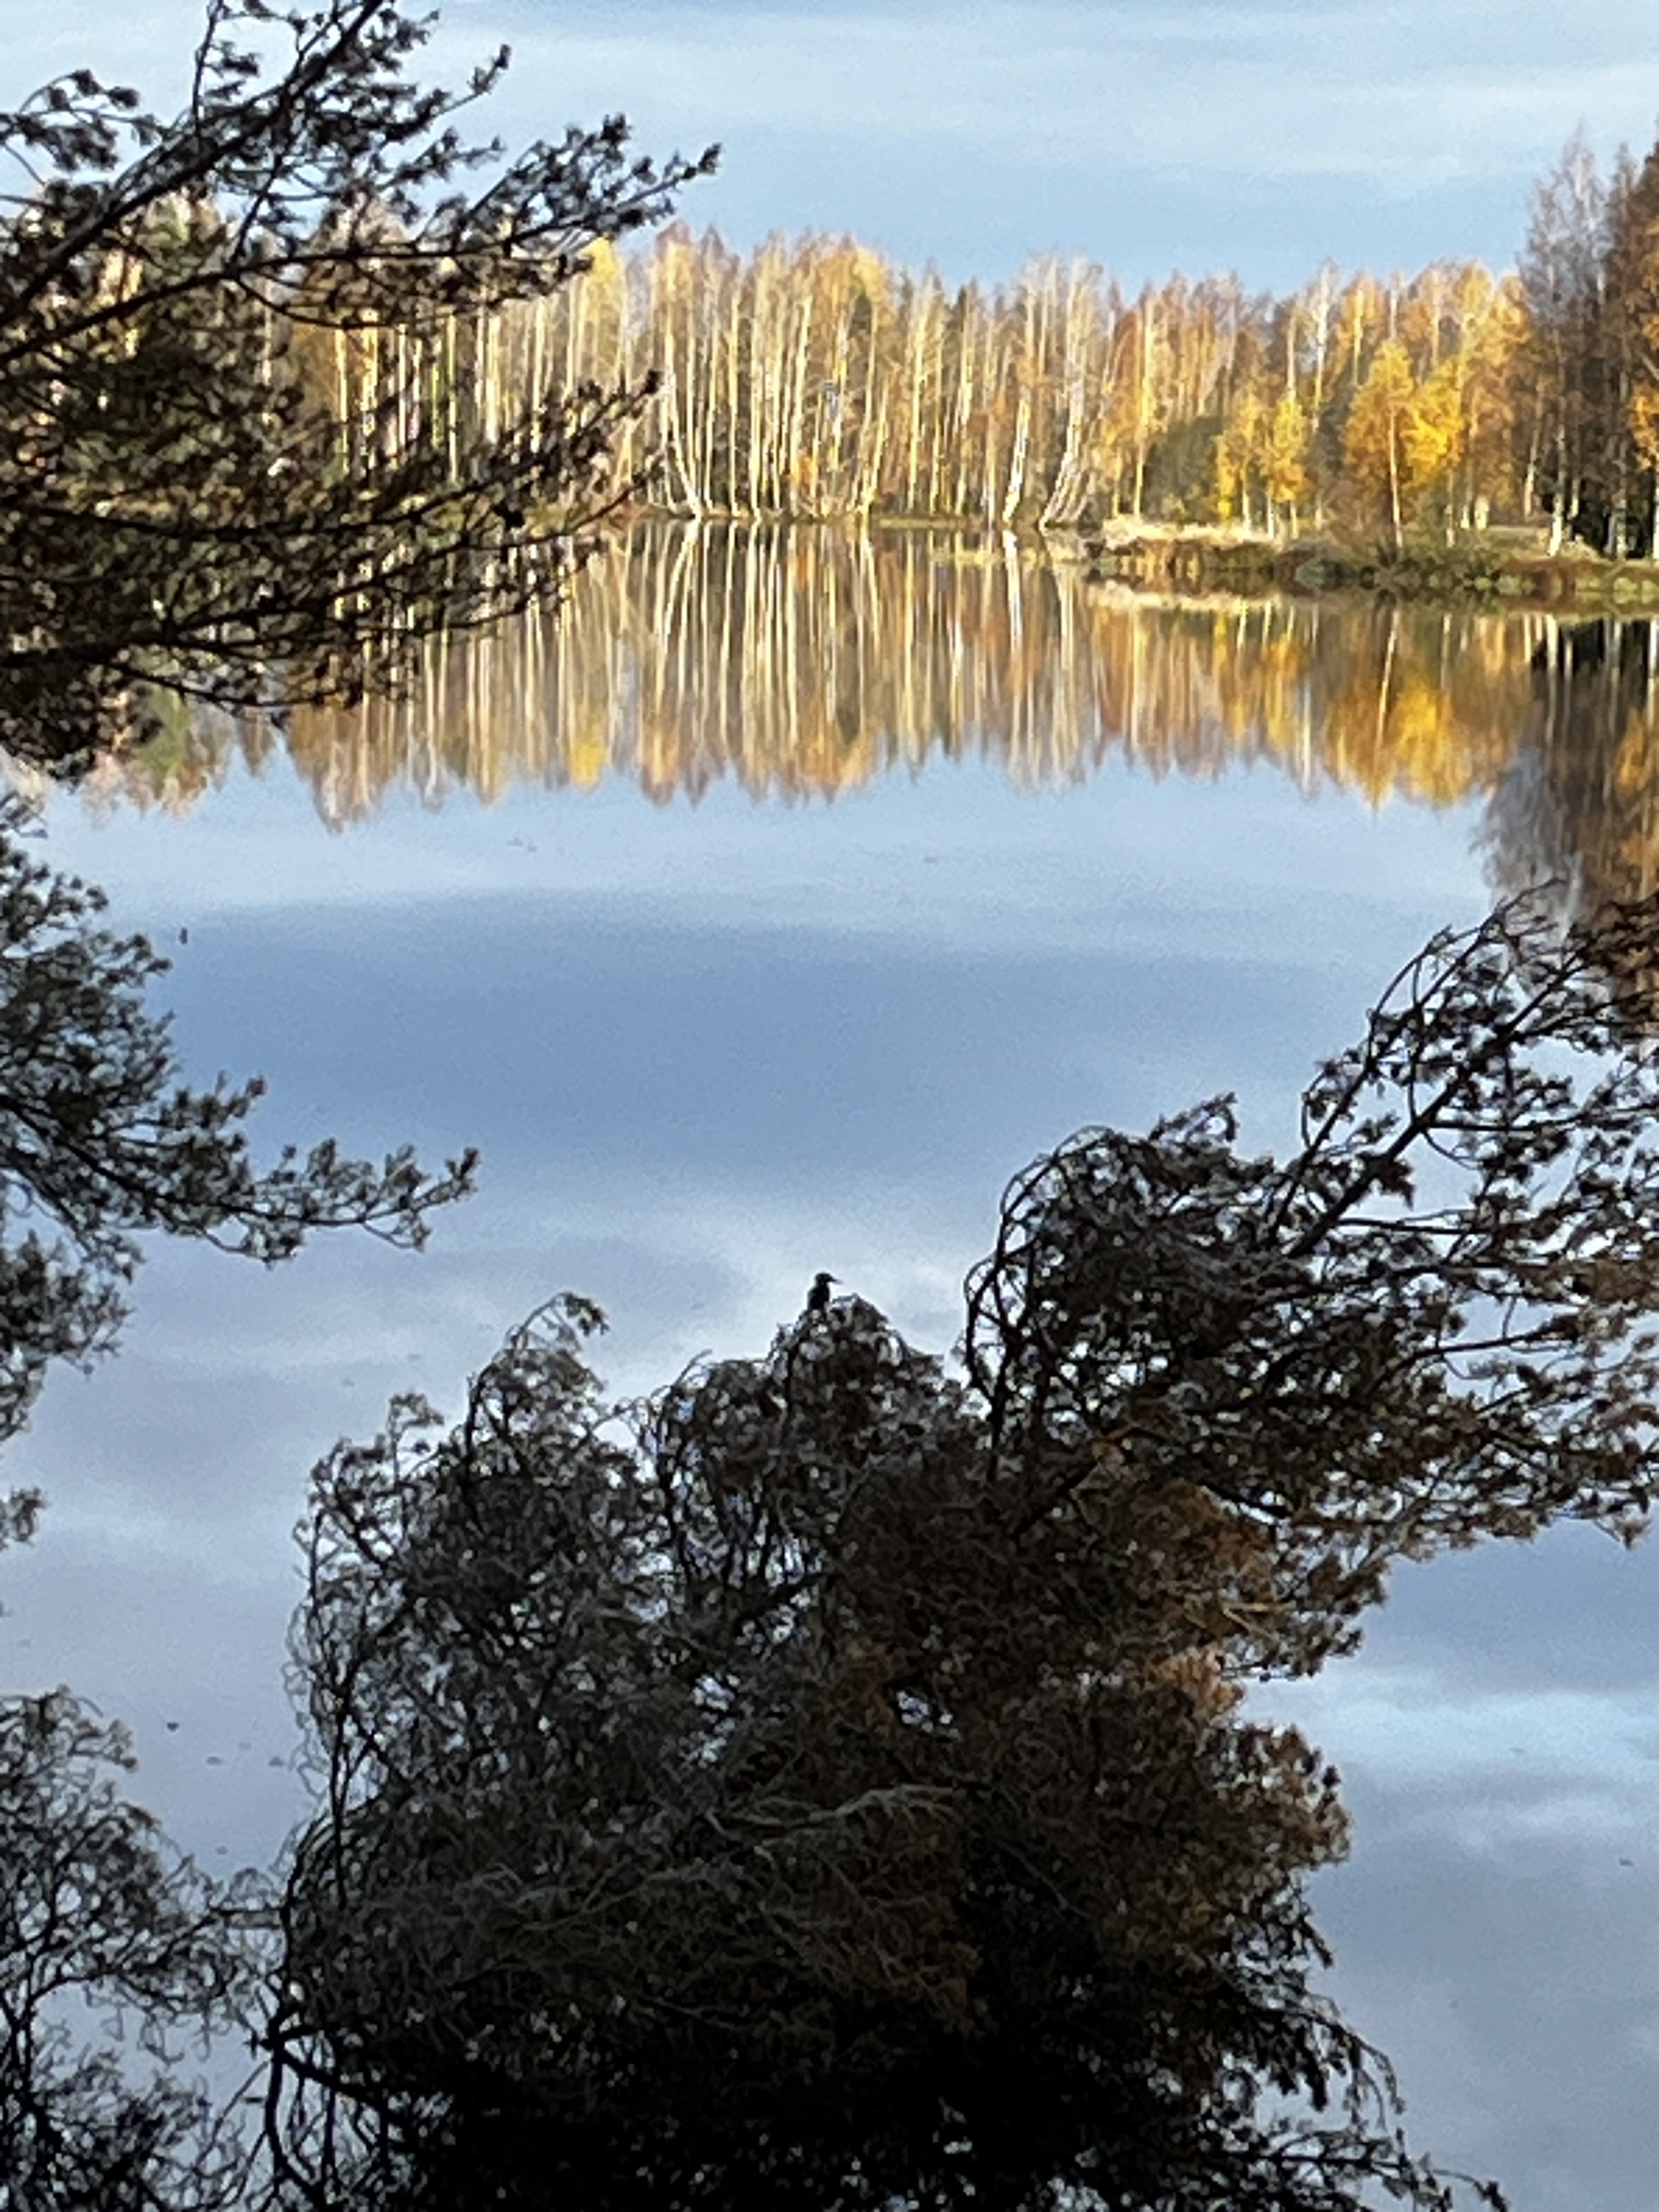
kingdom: Animalia
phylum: Chordata
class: Aves
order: Coraciiformes
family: Alcedinidae
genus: Alcedo
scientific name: Alcedo atthis
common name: Common kingfisher
